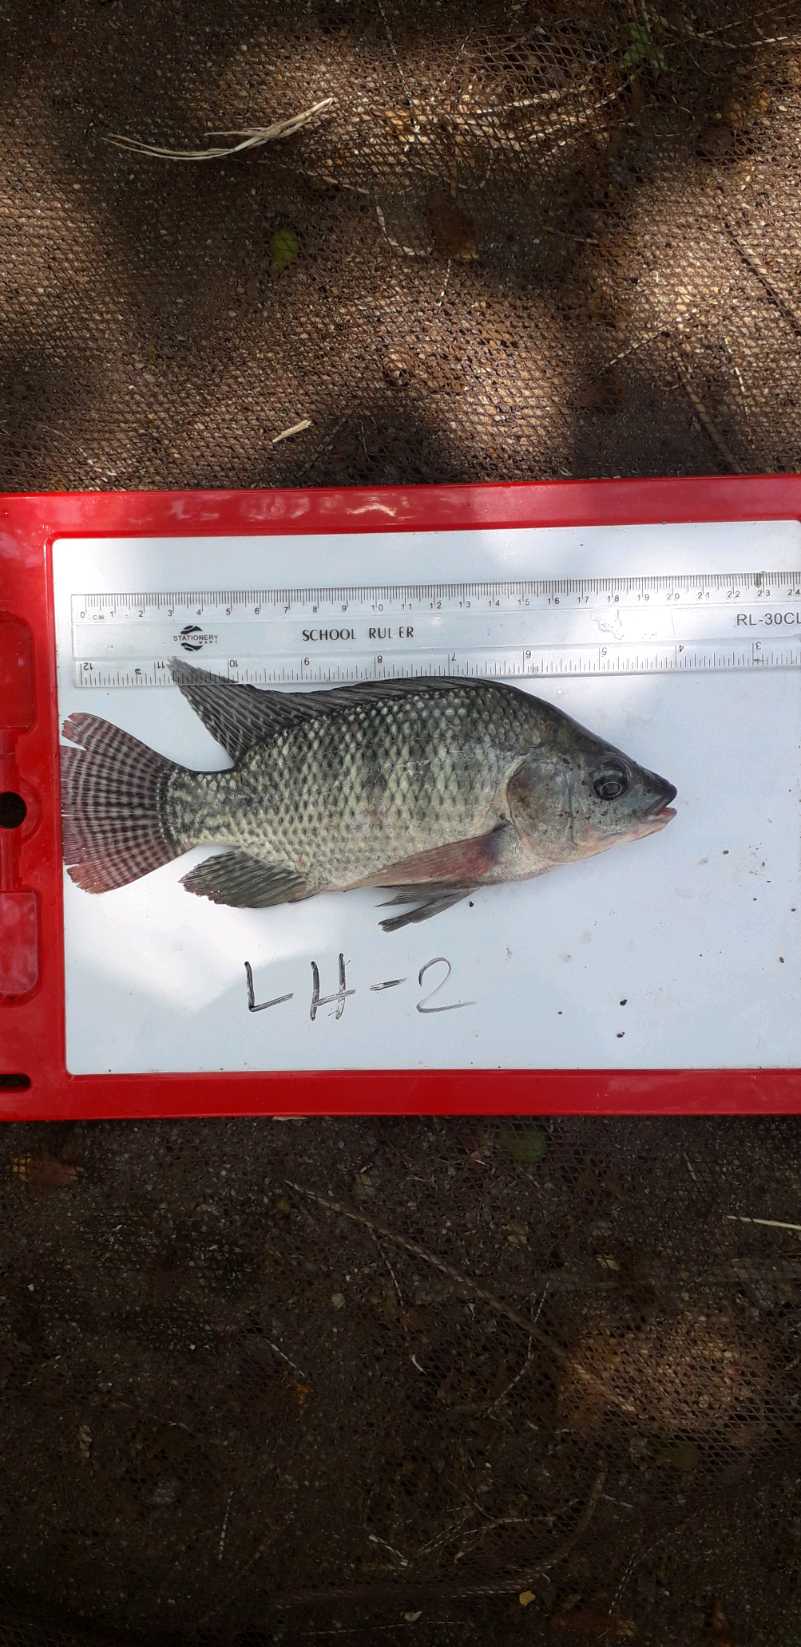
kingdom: Animalia
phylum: Chordata
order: Perciformes
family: Cichlidae
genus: Oreochromis
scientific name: Oreochromis niloticus
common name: Nile tilapia
